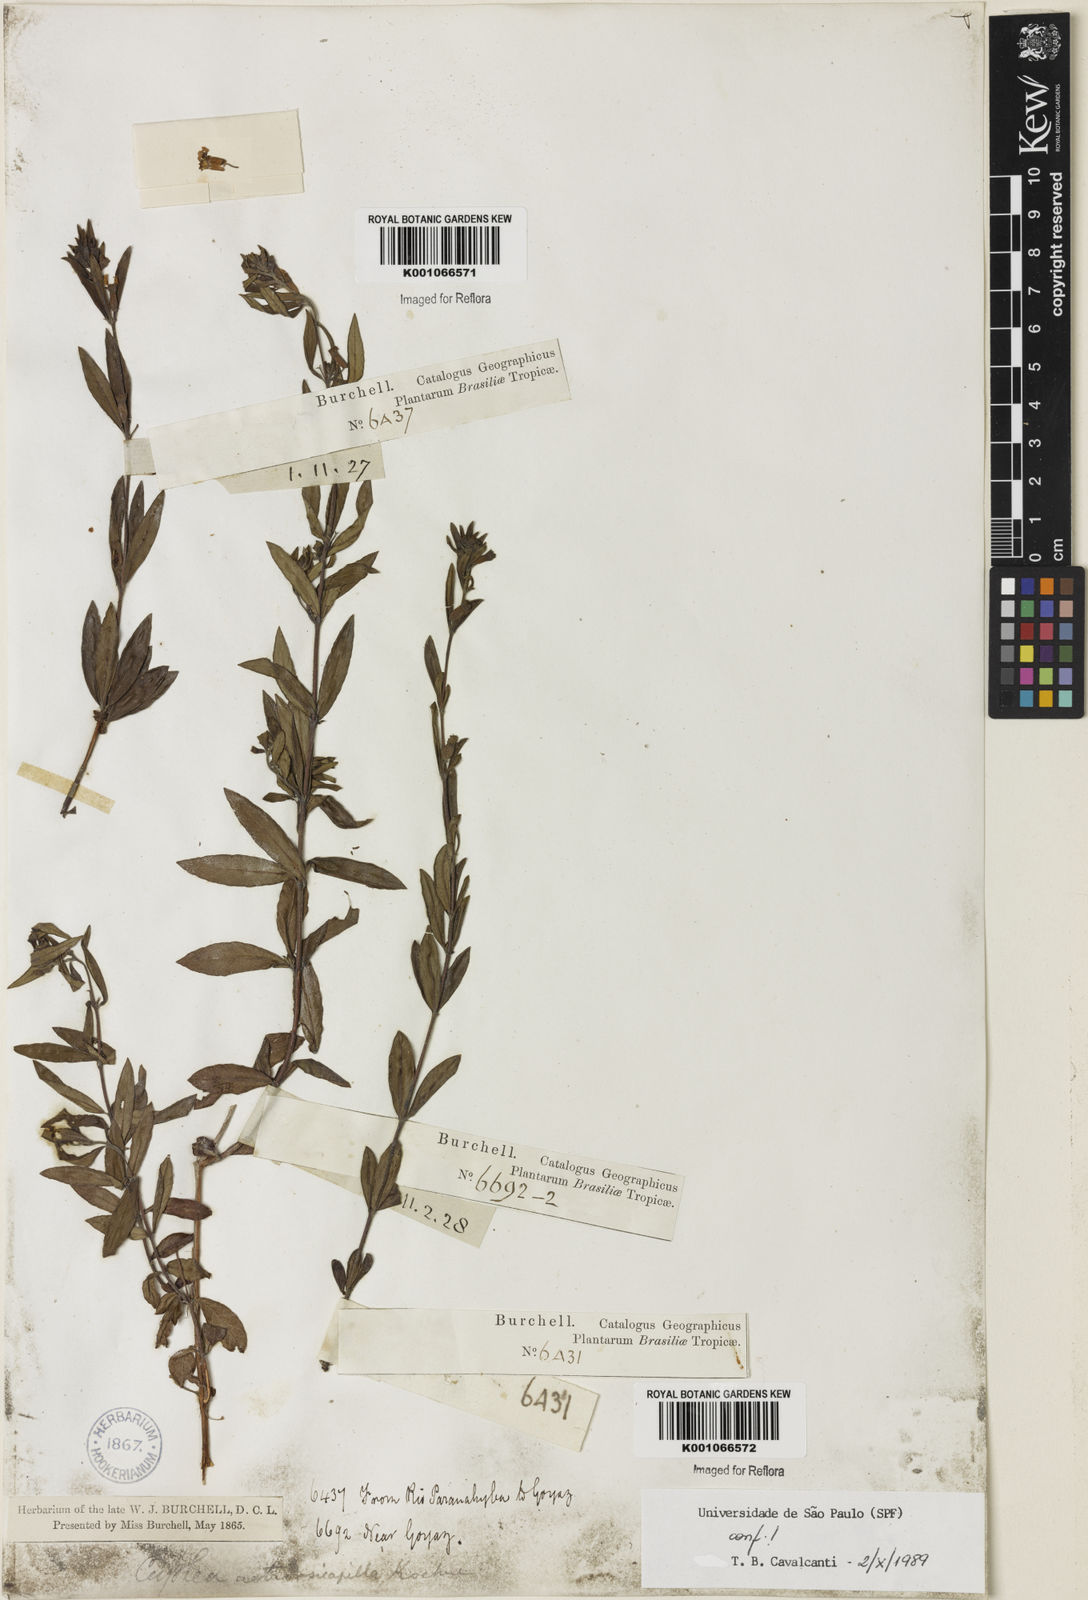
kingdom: Plantae
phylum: Tracheophyta
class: Magnoliopsida
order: Myrtales
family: Lythraceae
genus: Cuphea
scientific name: Cuphea retrorsicapilla
